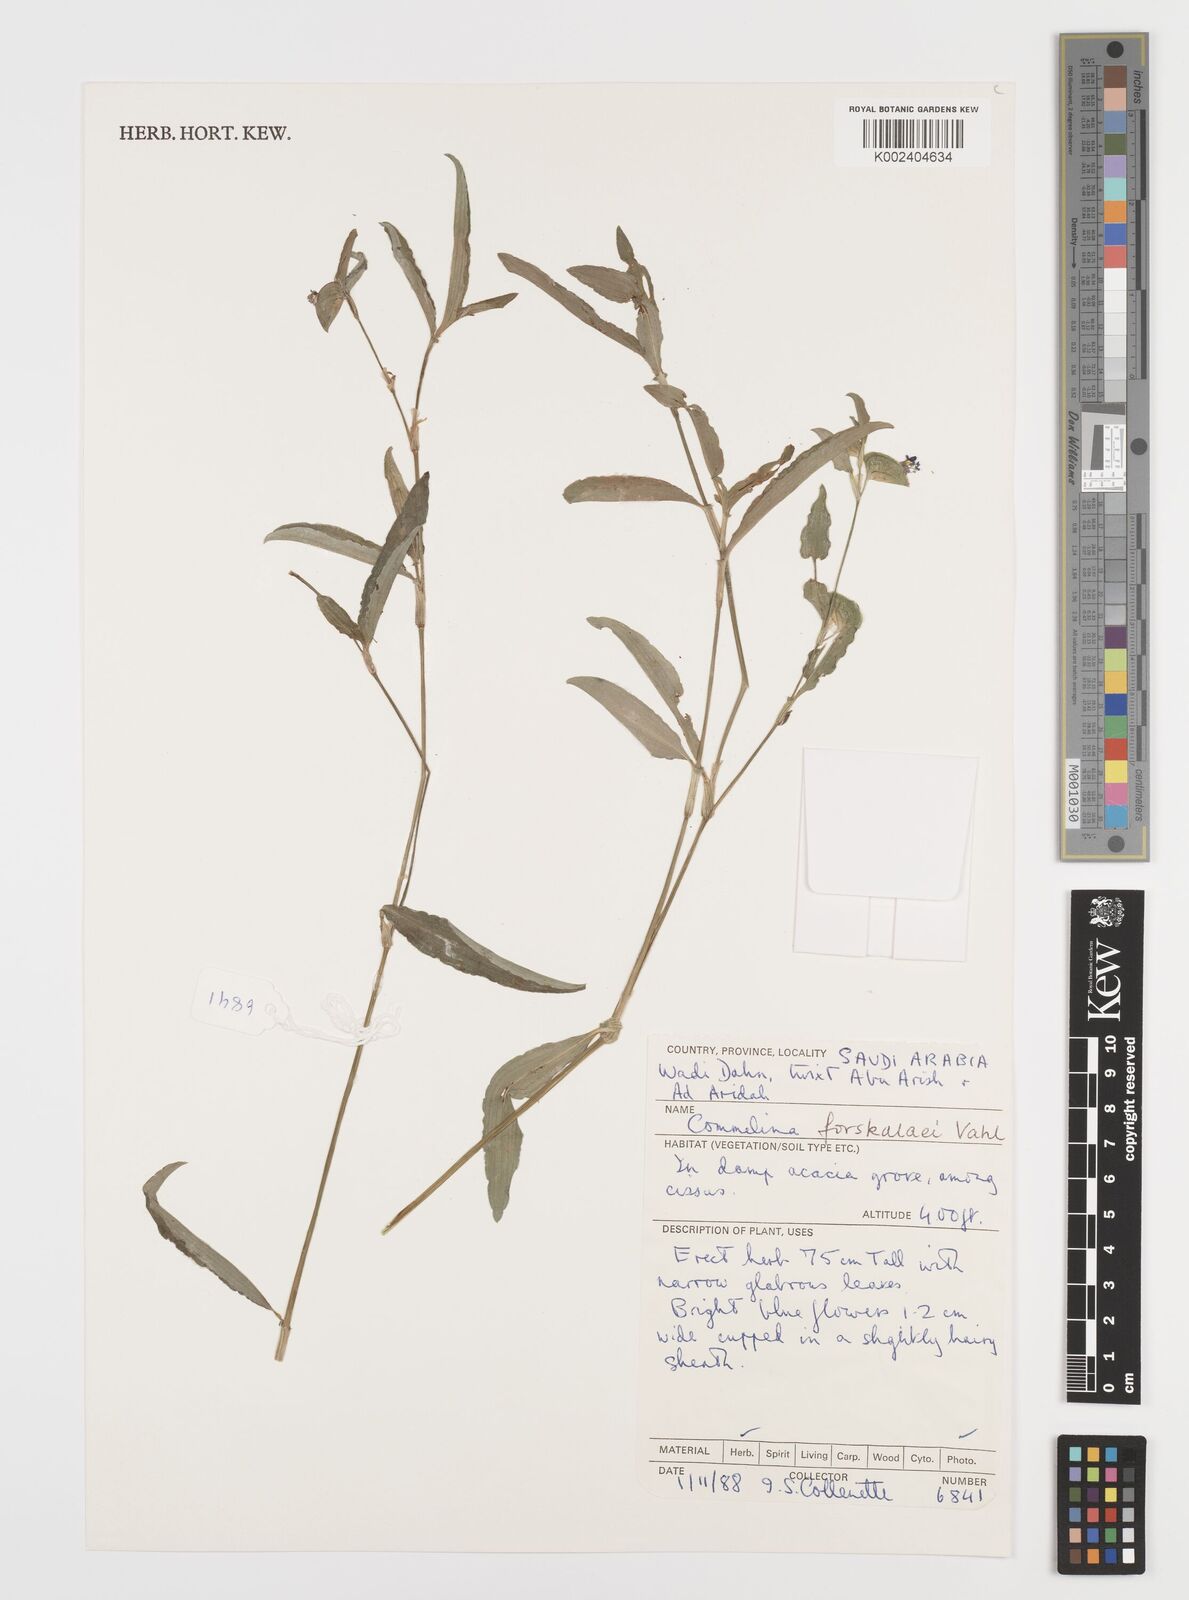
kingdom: Plantae
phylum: Tracheophyta
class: Liliopsida
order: Commelinales
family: Commelinaceae
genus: Commelina
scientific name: Commelina forskaolii
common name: Rat's ear
